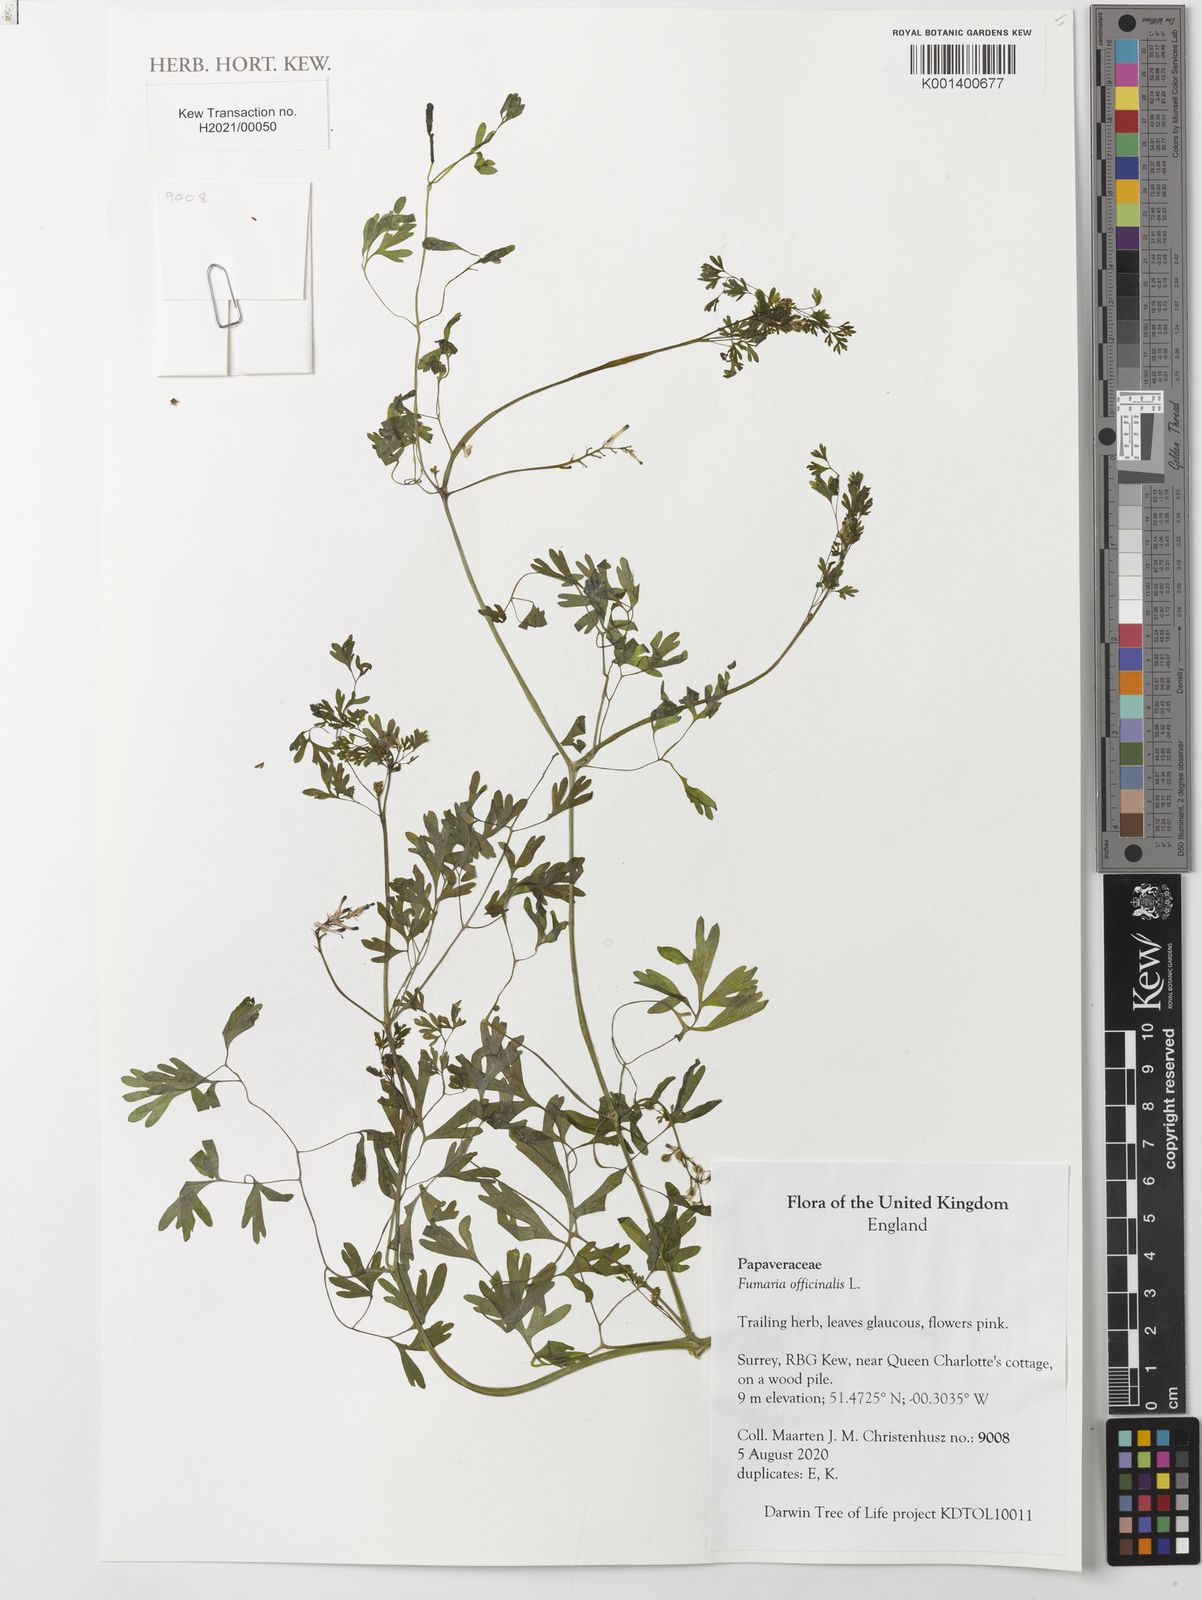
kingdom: Plantae
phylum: Tracheophyta
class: Magnoliopsida
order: Ranunculales
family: Papaveraceae
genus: Fumaria
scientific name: Fumaria officinalis
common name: Common fumitory
